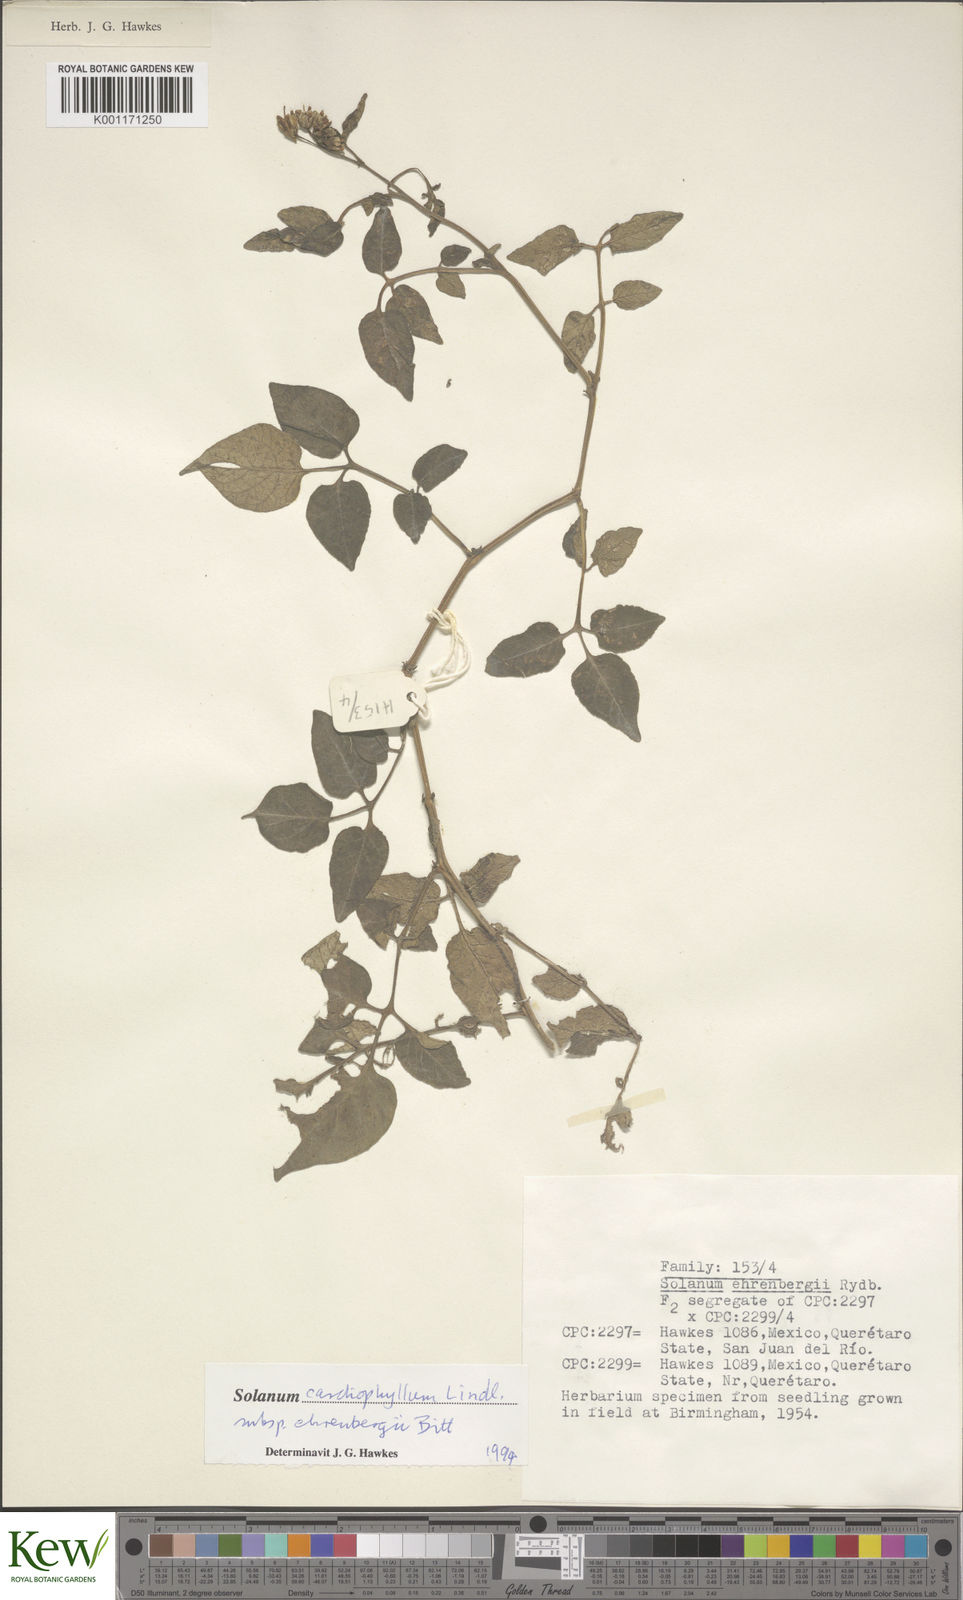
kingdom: Plantae
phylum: Tracheophyta
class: Magnoliopsida
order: Solanales
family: Solanaceae
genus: Solanum
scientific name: Solanum ehrenbergii
